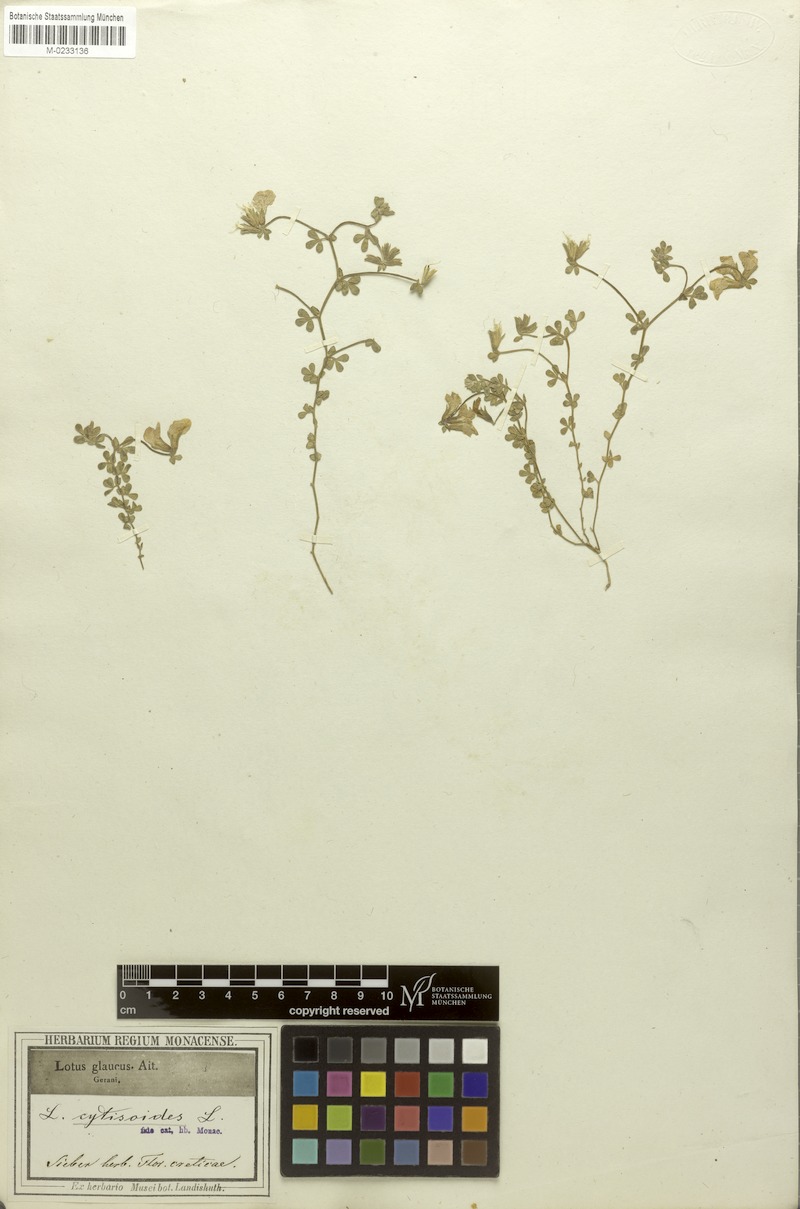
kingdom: Plantae
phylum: Tracheophyta
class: Magnoliopsida
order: Fabales
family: Fabaceae
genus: Lotus
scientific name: Lotus cytisoides
